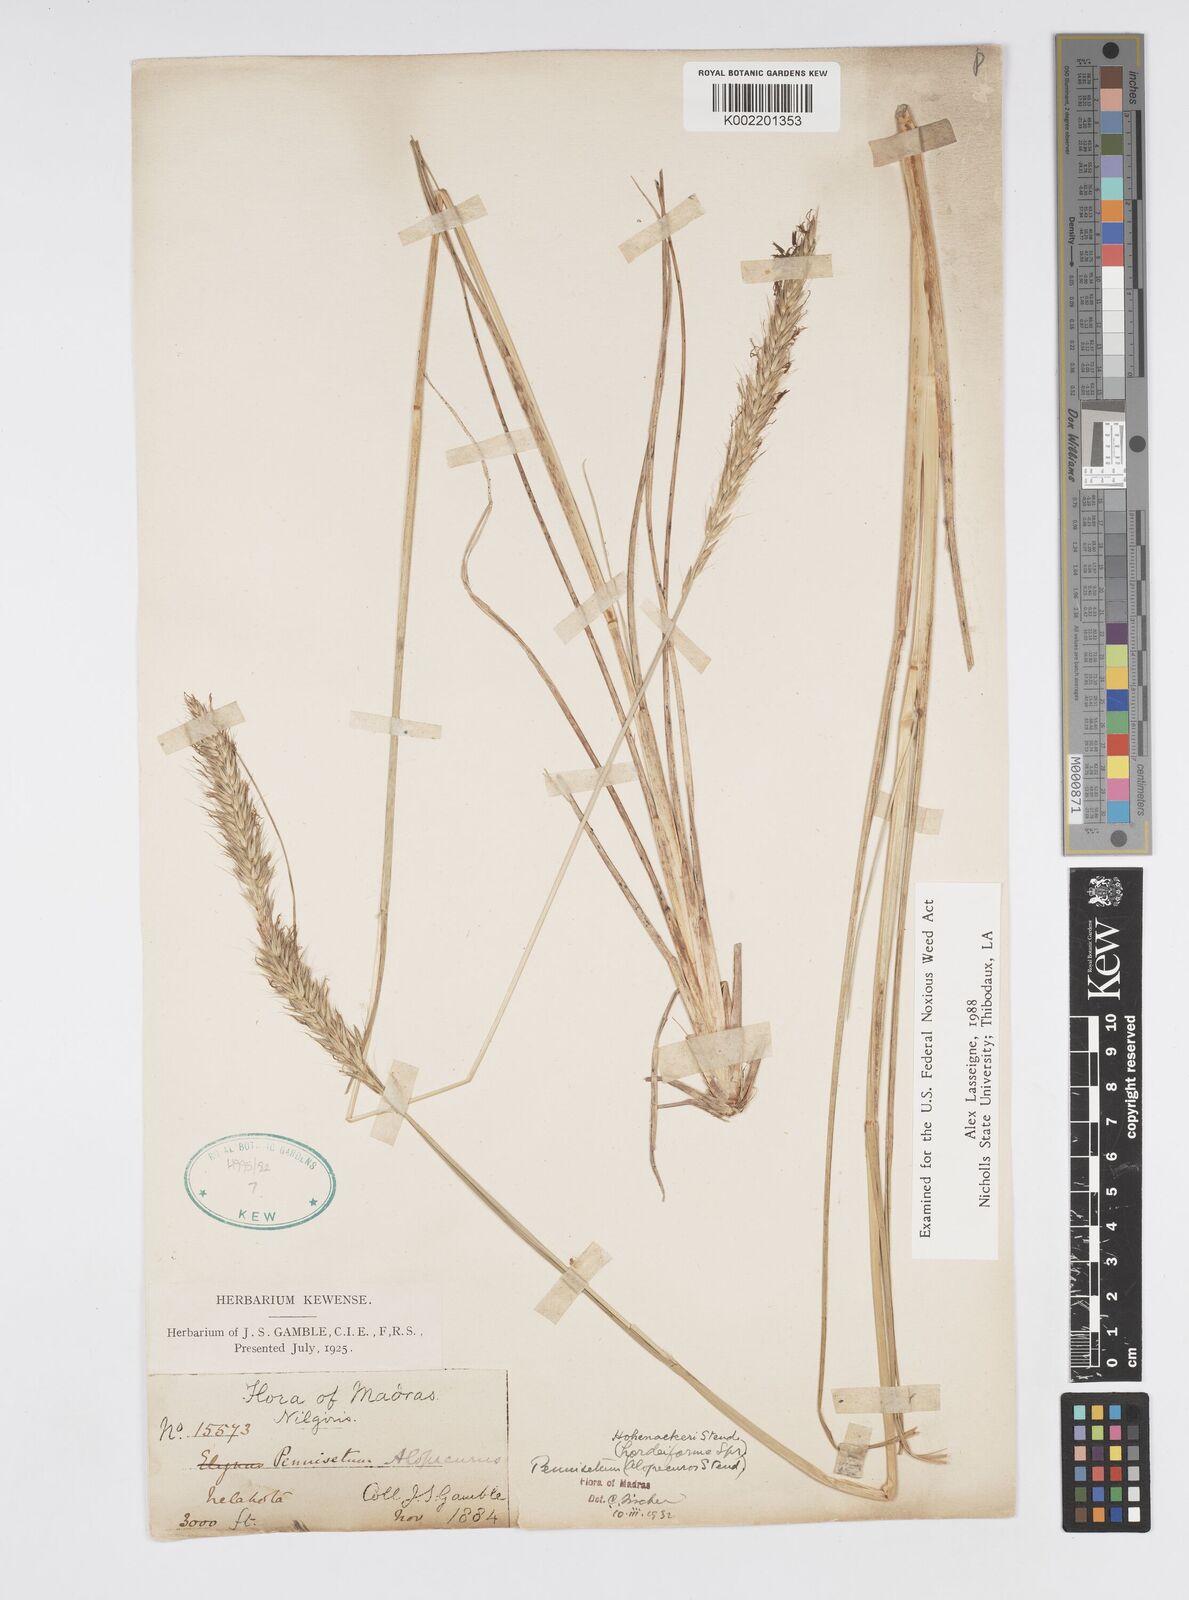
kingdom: Plantae
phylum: Tracheophyta
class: Liliopsida
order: Poales
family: Poaceae
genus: Cenchrus
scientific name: Cenchrus hohenackeri
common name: Moya grass
